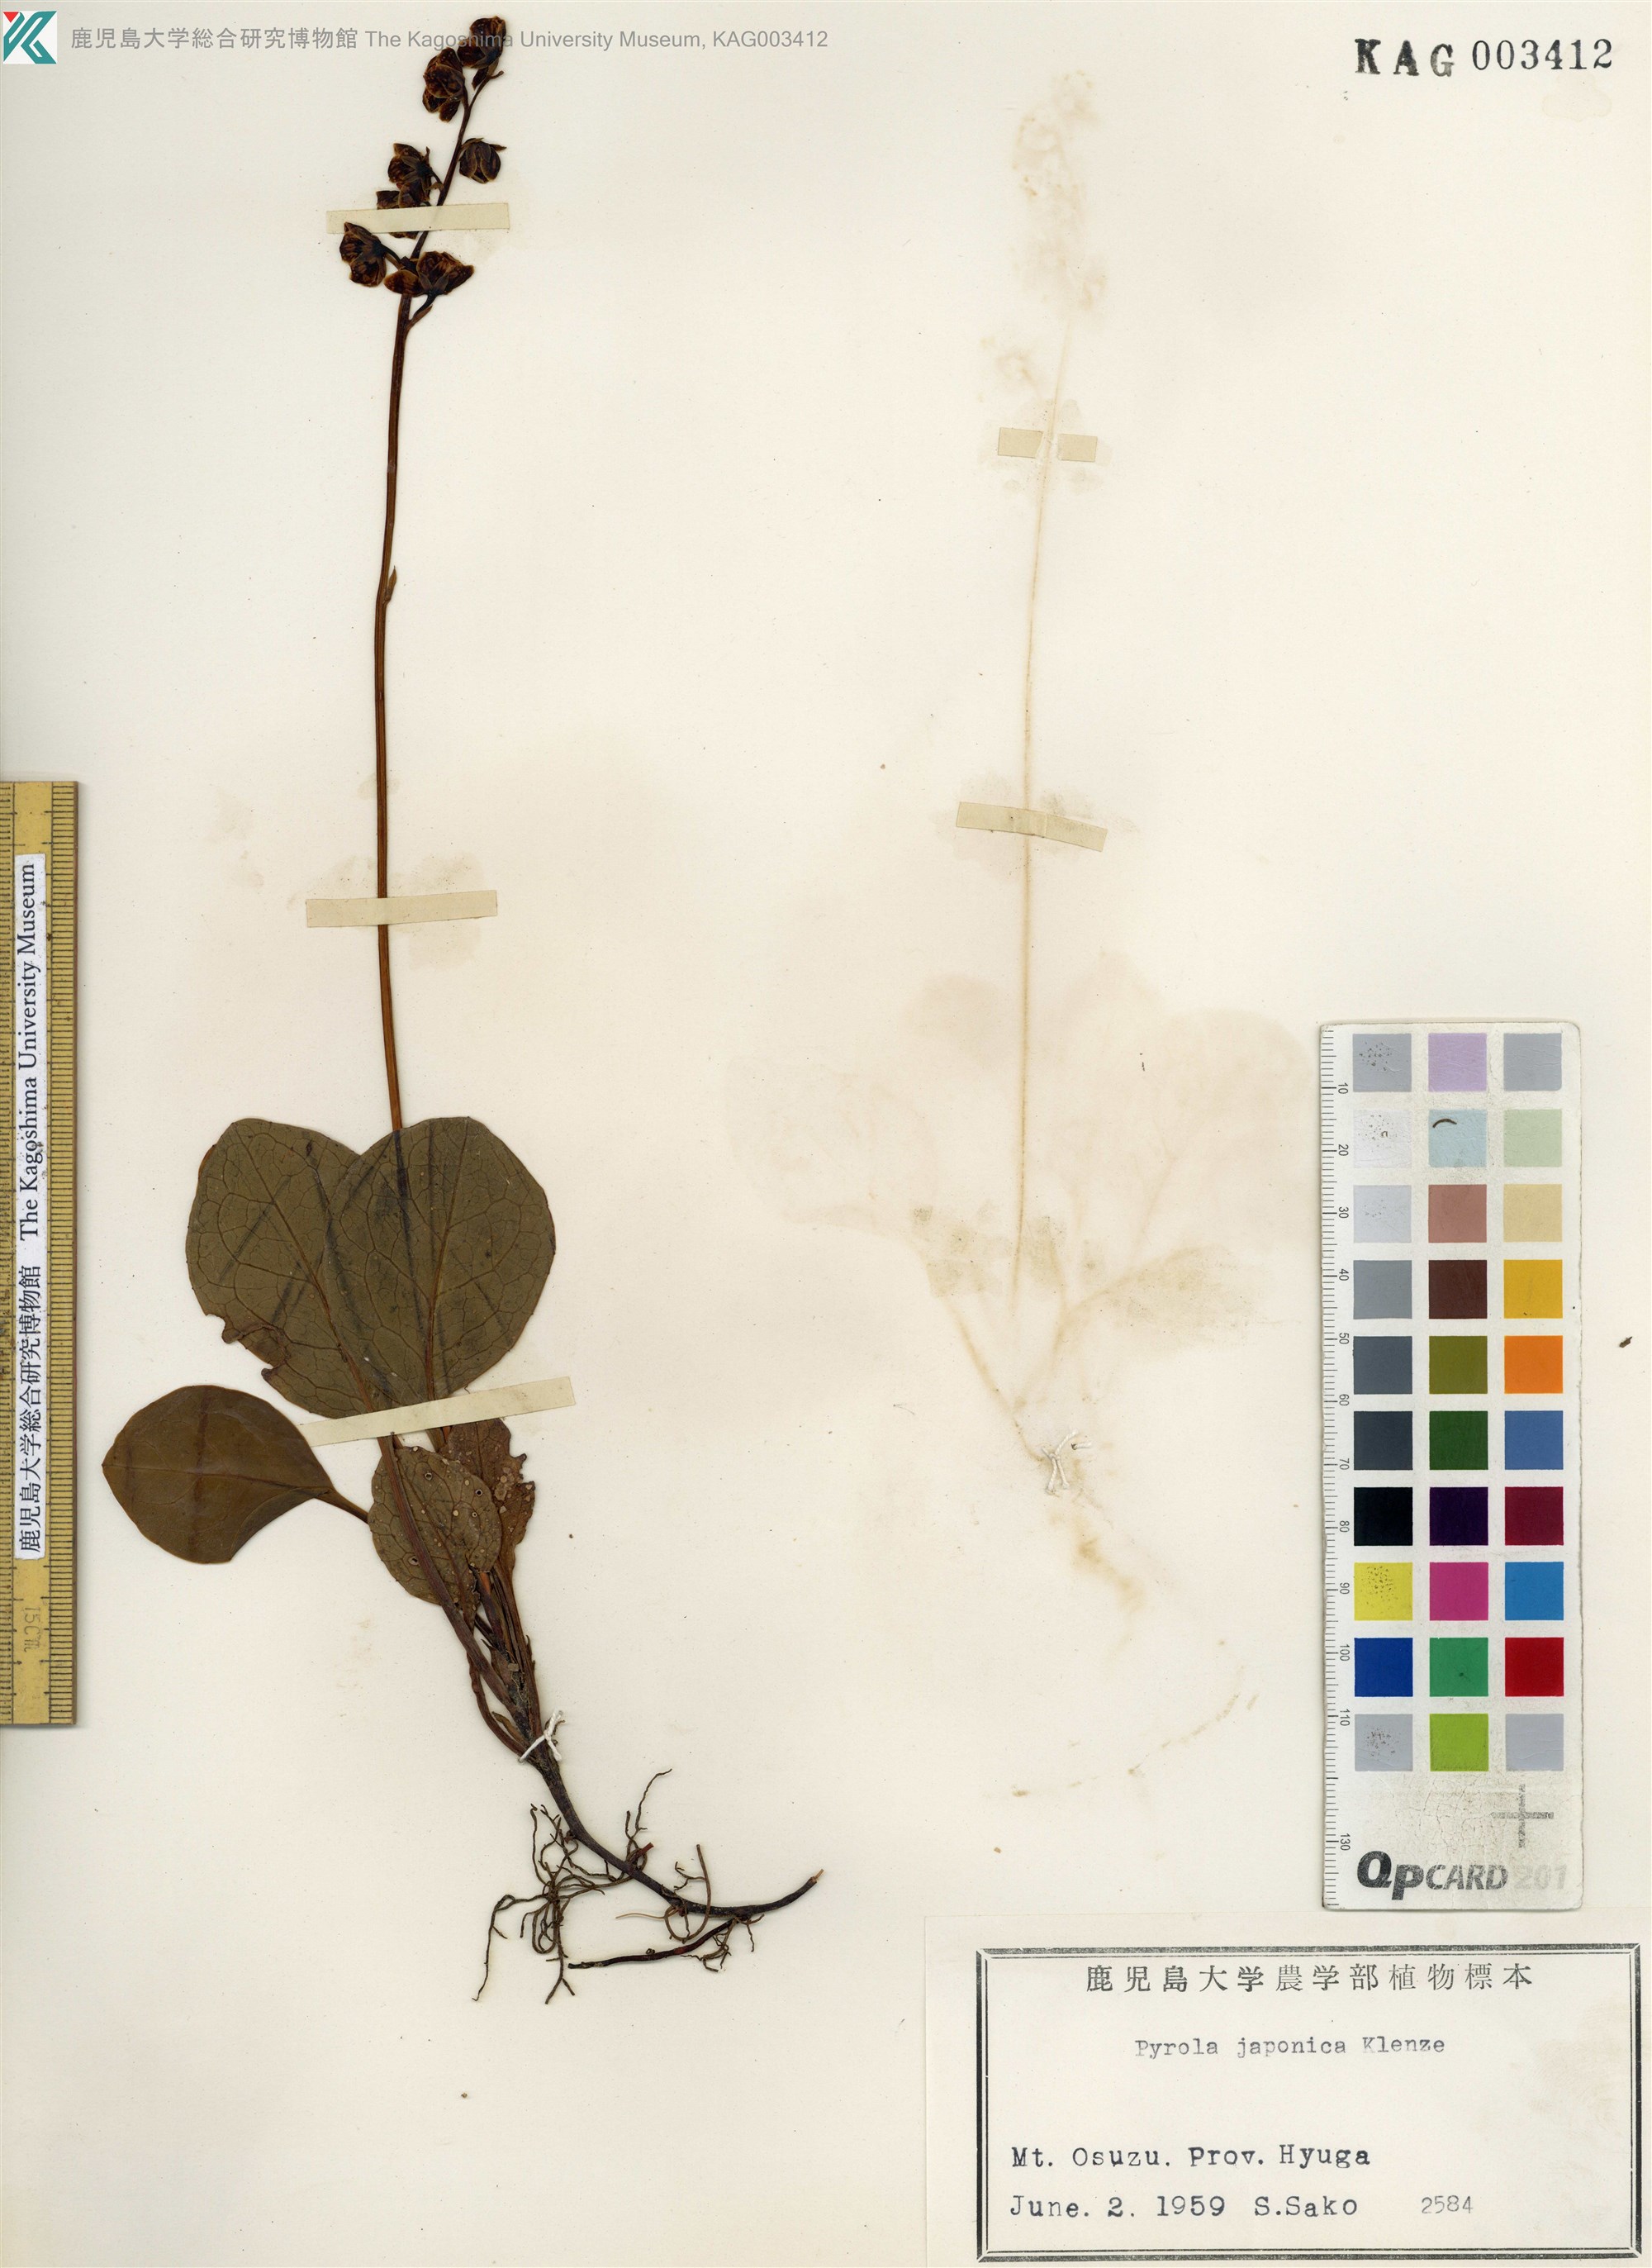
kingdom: Plantae
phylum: Tracheophyta
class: Magnoliopsida
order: Ericales
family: Ericaceae
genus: Pyrola
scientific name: Pyrola japonica
